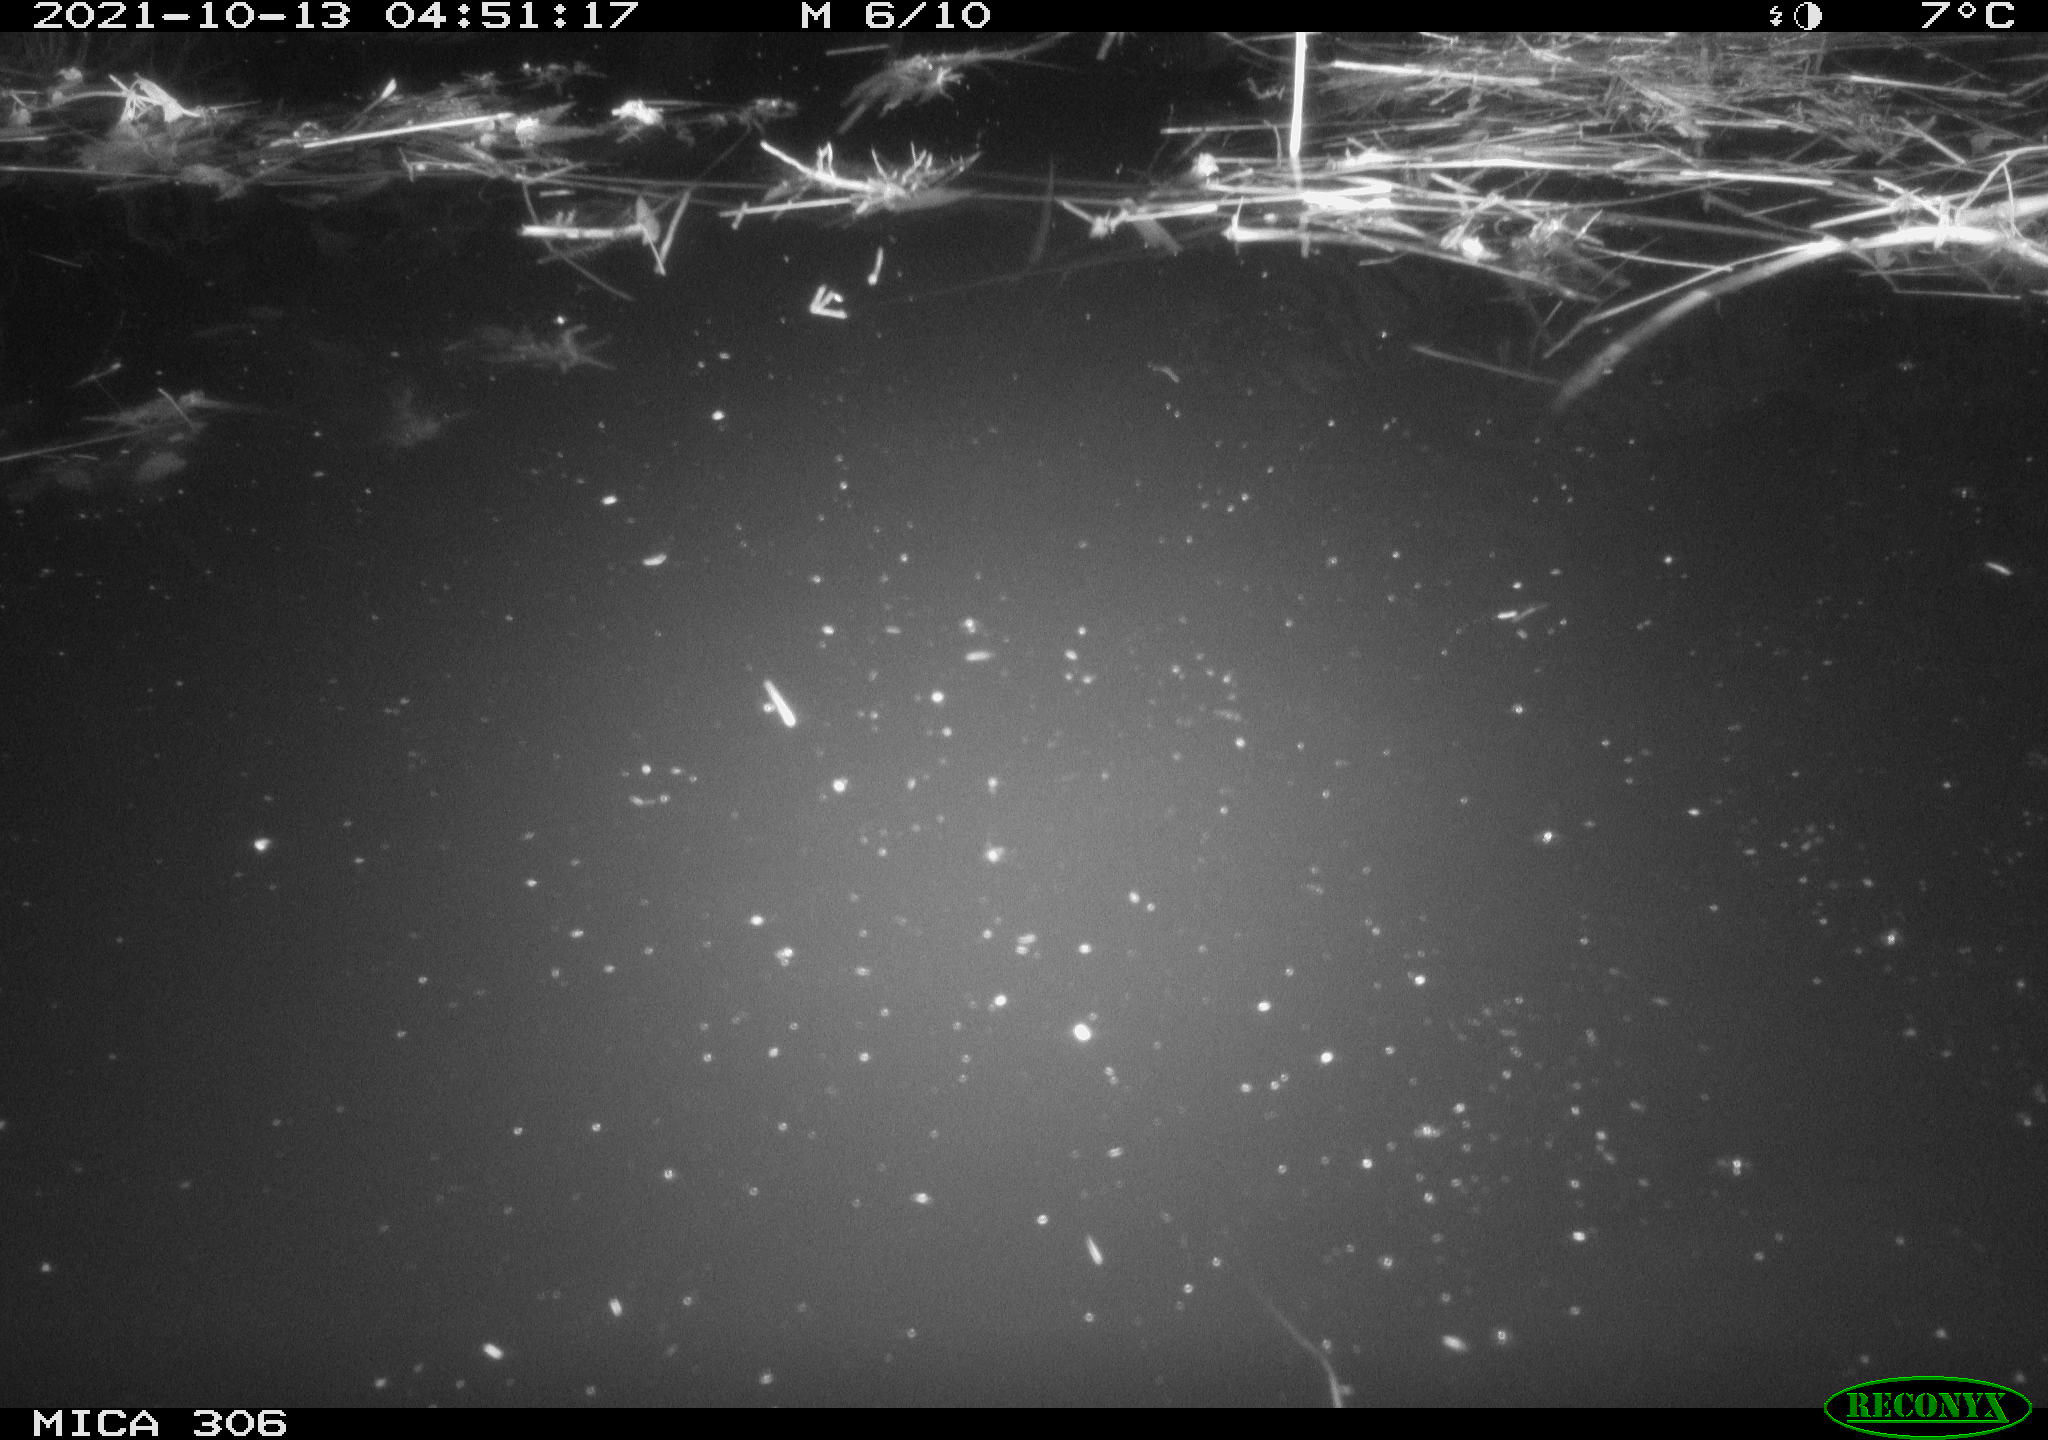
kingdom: Animalia
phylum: Chordata
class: Mammalia
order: Rodentia
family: Cricetidae
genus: Ondatra
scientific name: Ondatra zibethicus
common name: Muskrat
